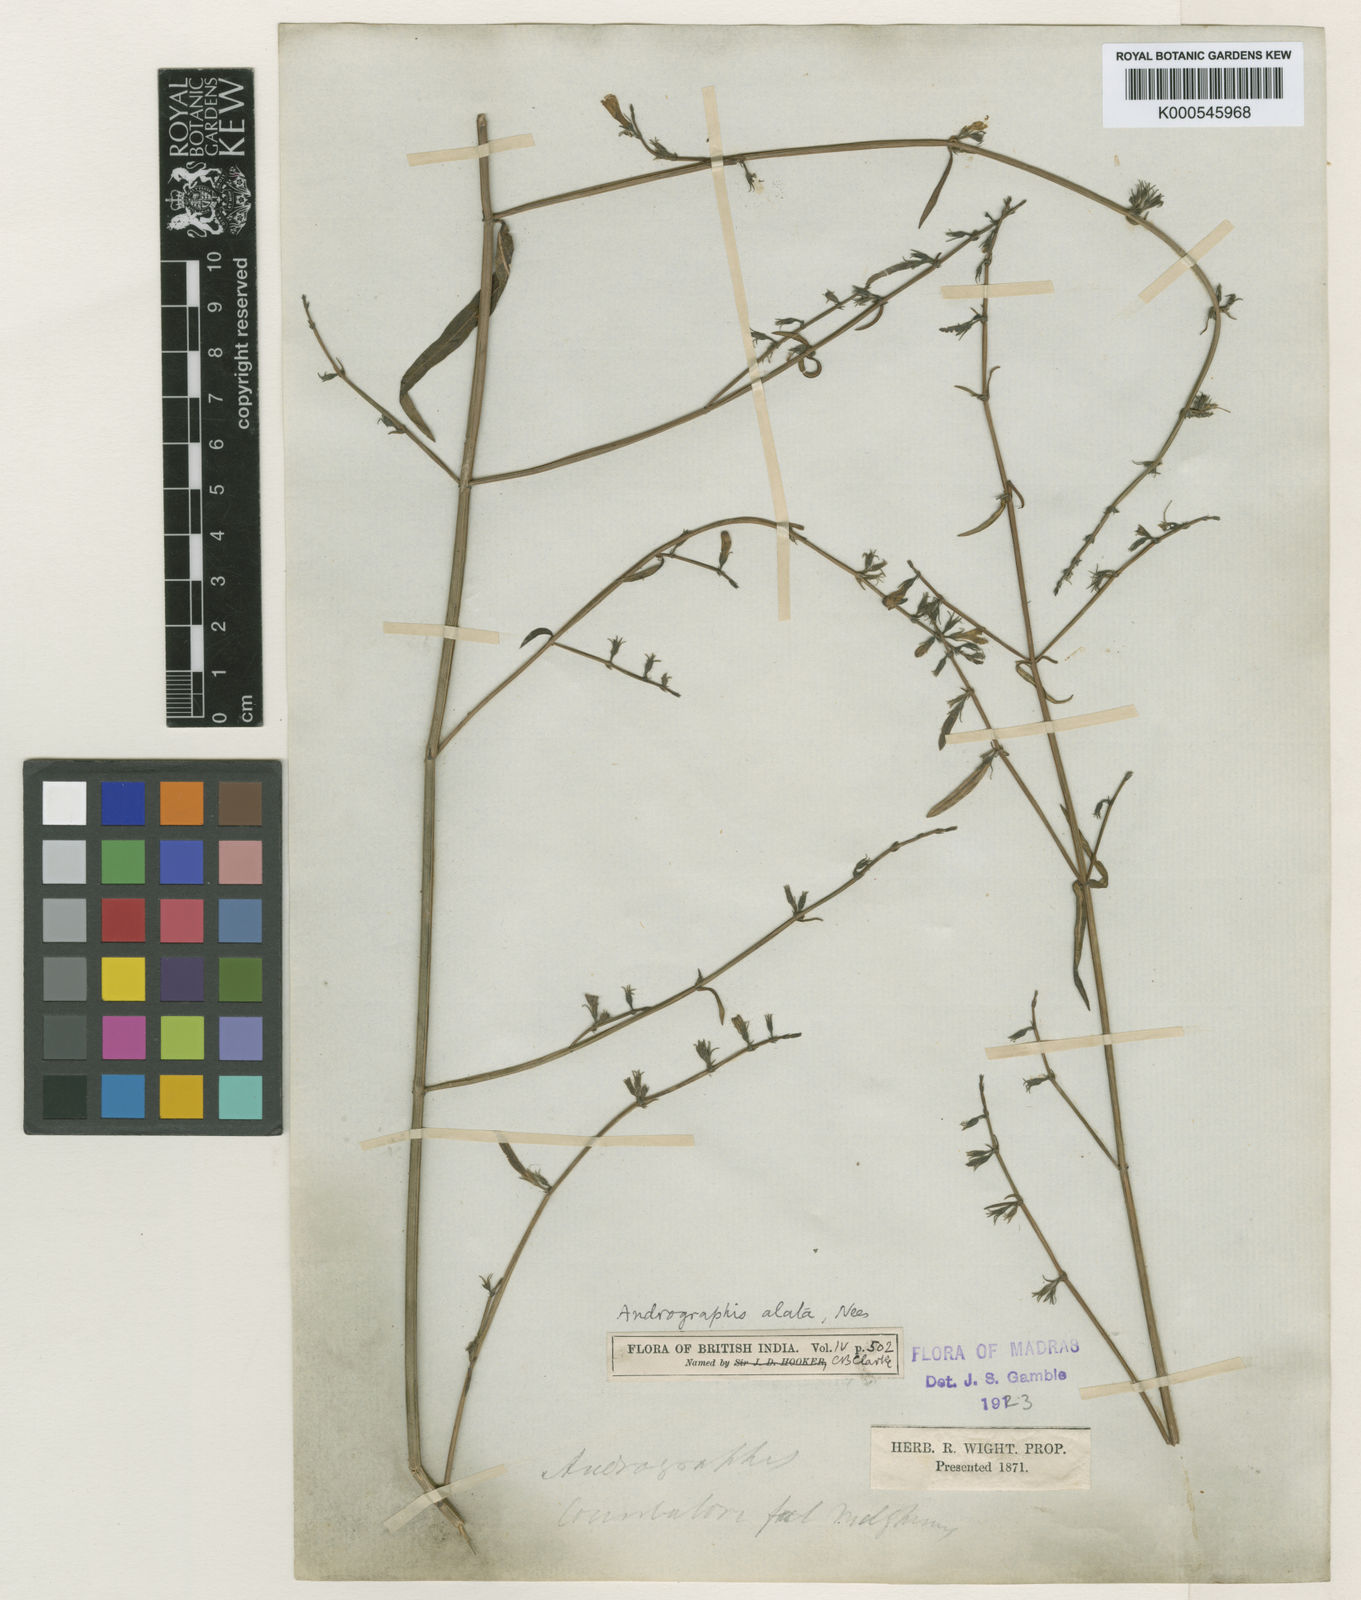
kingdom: Plantae
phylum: Tracheophyta
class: Magnoliopsida
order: Lamiales
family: Acanthaceae
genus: Andrographis
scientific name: Andrographis alata
